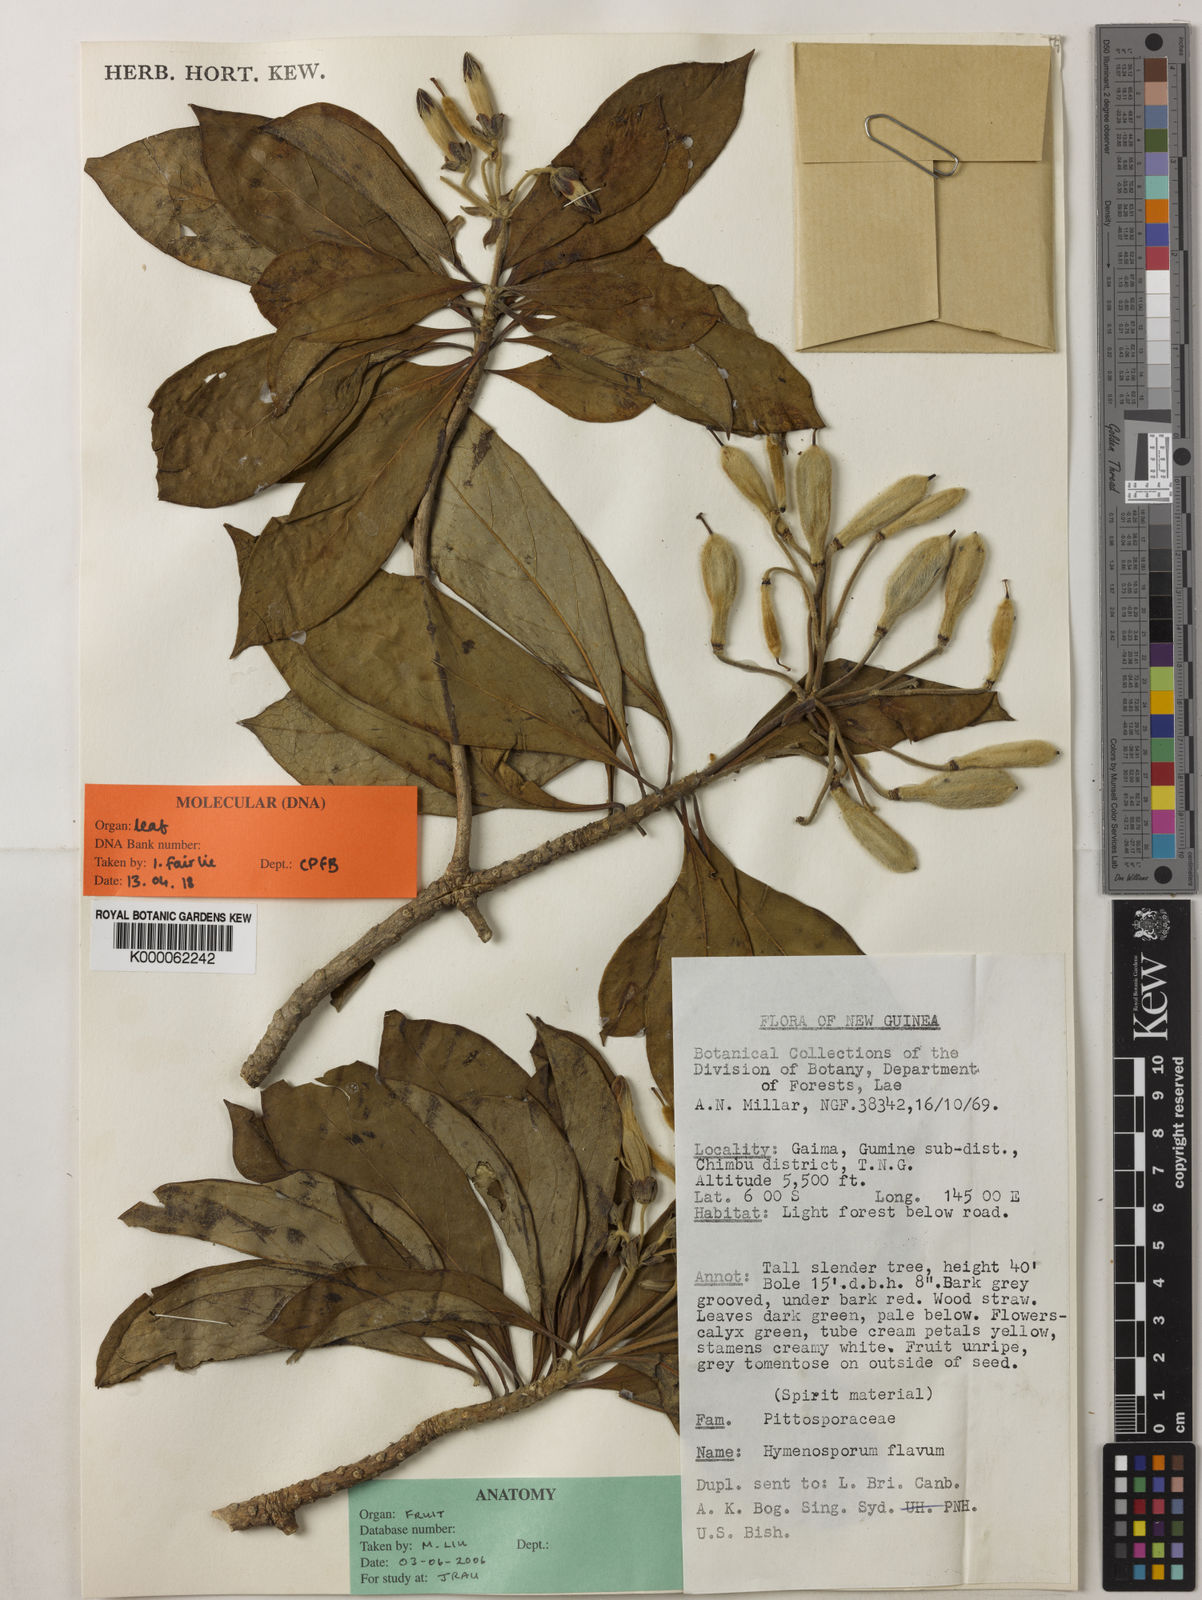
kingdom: Plantae
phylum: Tracheophyta
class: Magnoliopsida
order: Apiales
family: Pittosporaceae
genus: Hymenosporum
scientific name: Hymenosporum flavum
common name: Native frangipani
